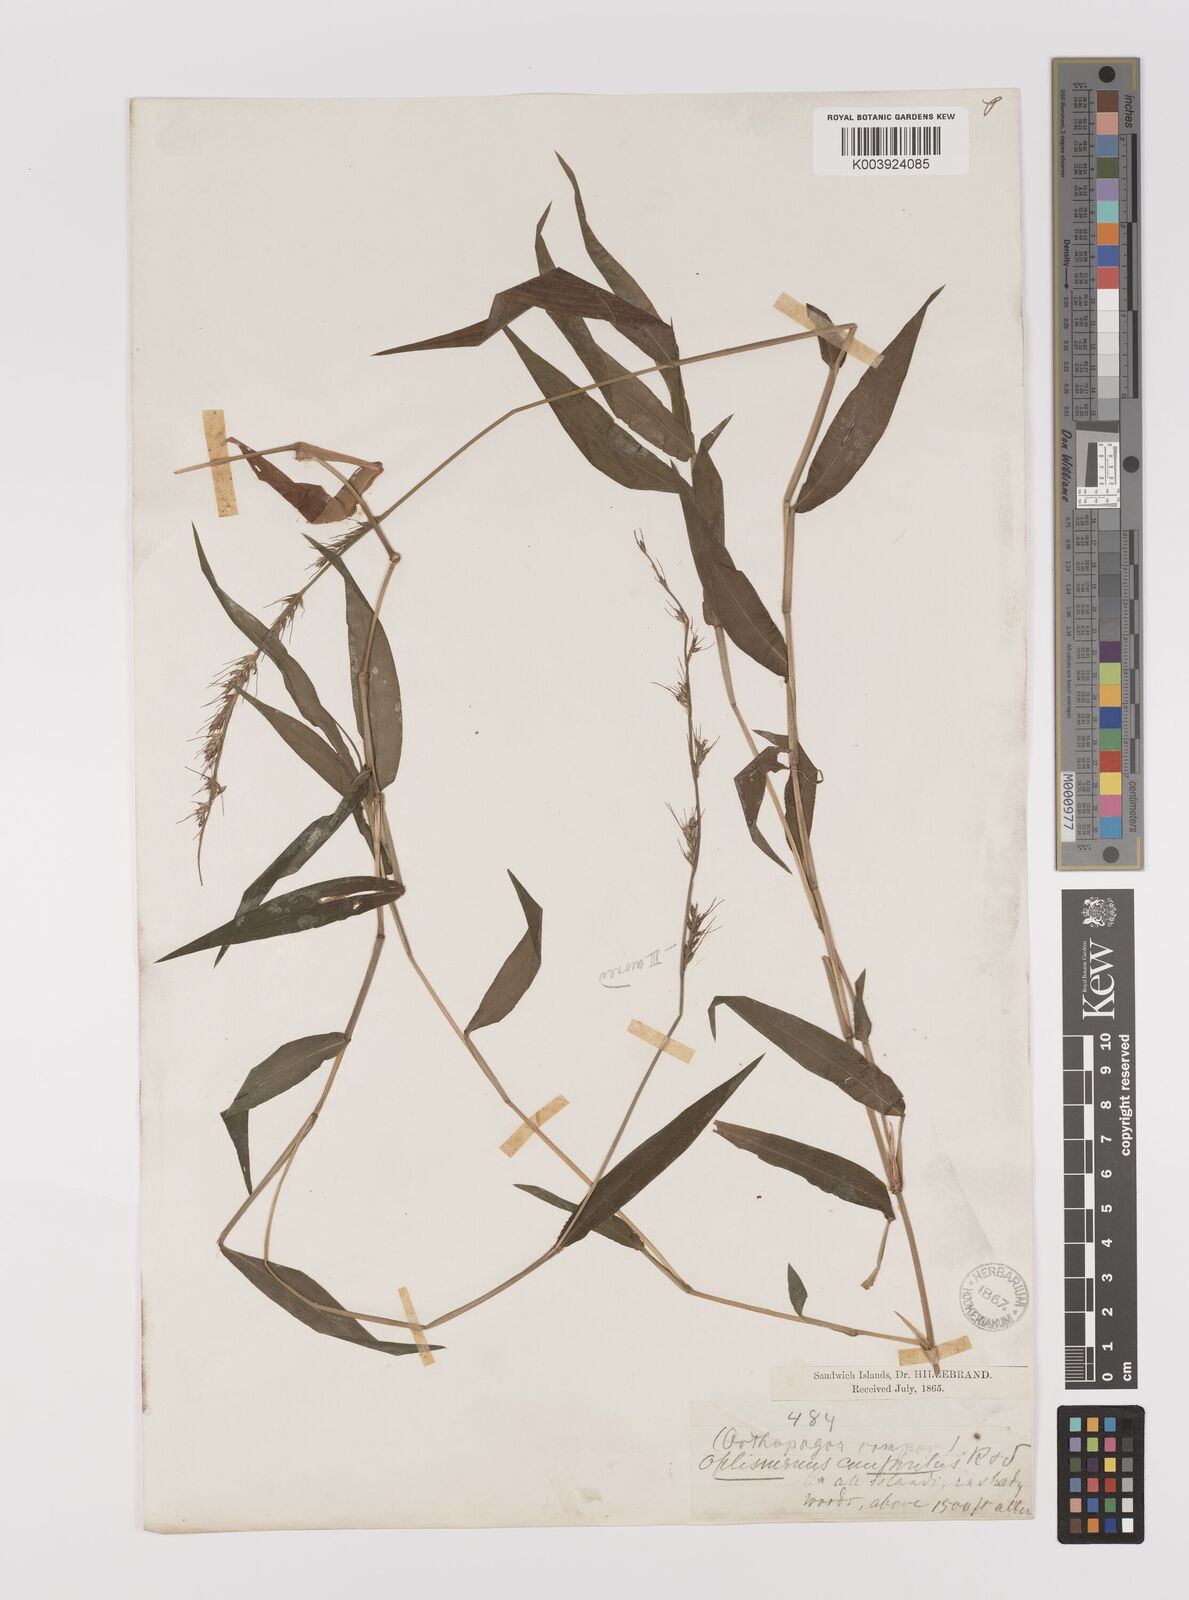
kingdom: Plantae
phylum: Tracheophyta
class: Liliopsida
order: Poales
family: Poaceae
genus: Oplismenus
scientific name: Oplismenus hirtellus
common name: Basketgrass
